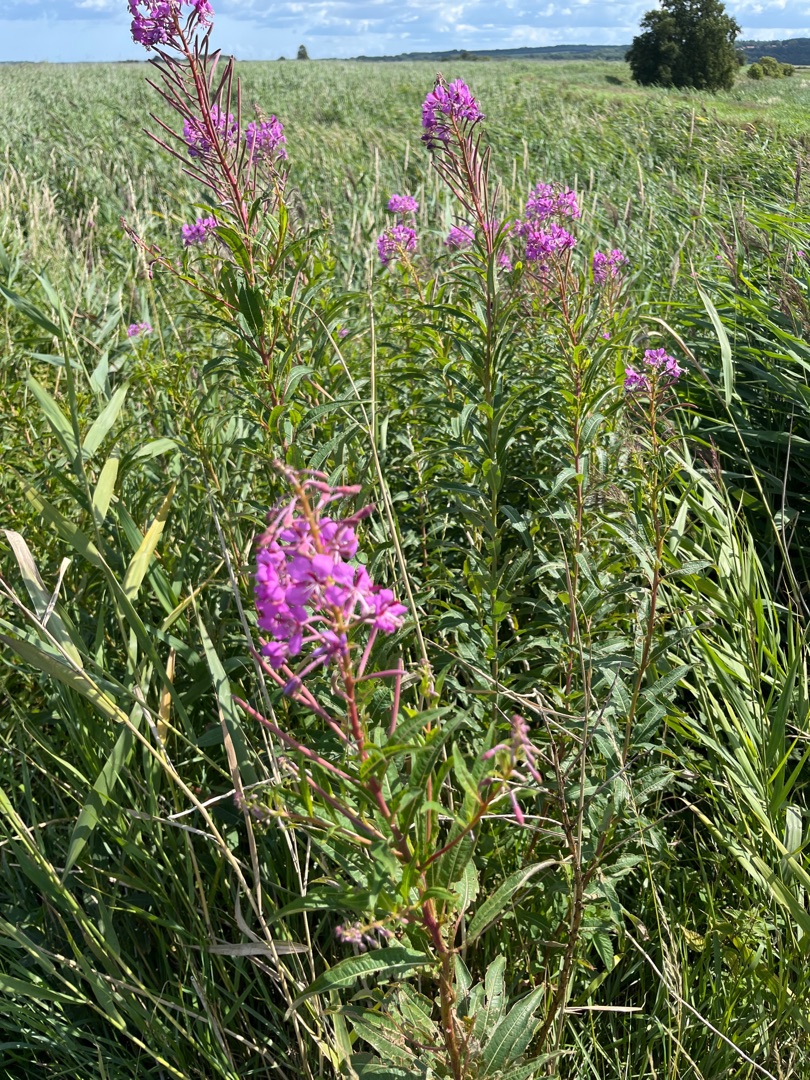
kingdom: Plantae
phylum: Tracheophyta
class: Magnoliopsida
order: Myrtales
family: Onagraceae
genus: Chamaenerion
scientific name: Chamaenerion angustifolium
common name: Gederams
